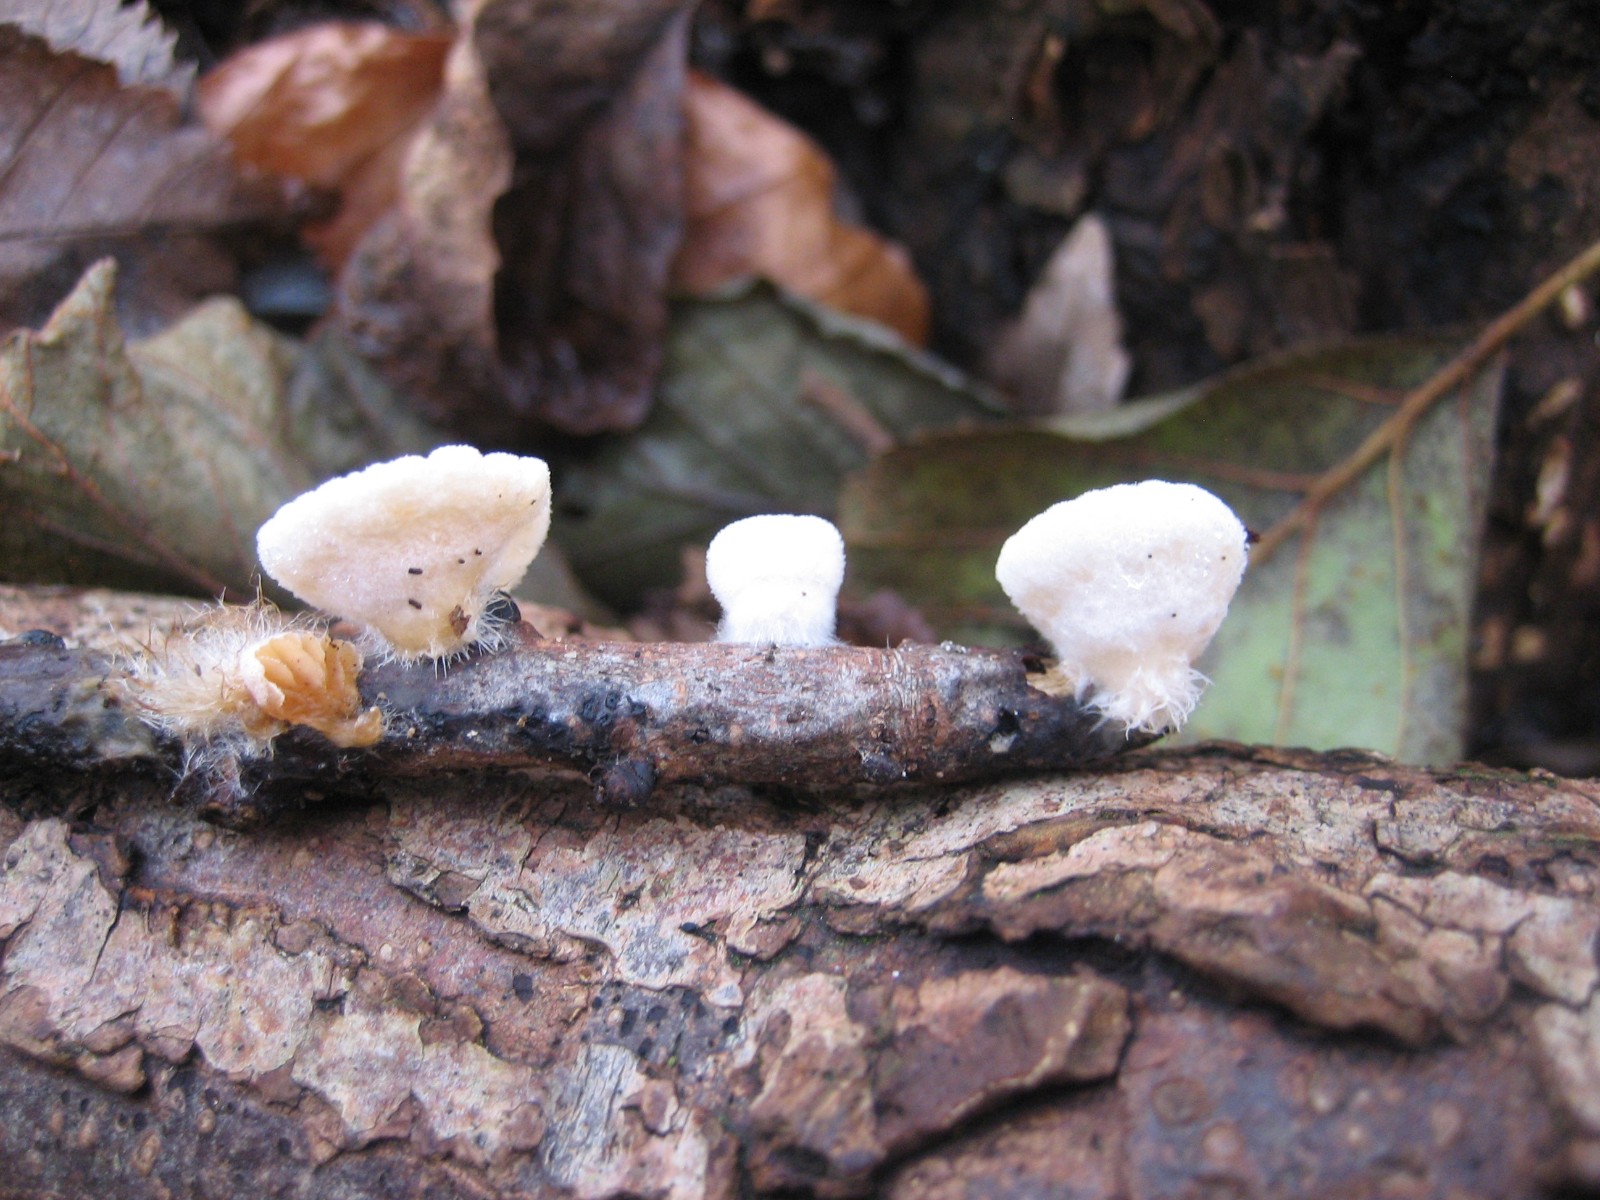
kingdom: Fungi
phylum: Basidiomycota
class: Agaricomycetes
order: Agaricales
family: Crepidotaceae
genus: Crepidotus
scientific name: Crepidotus
